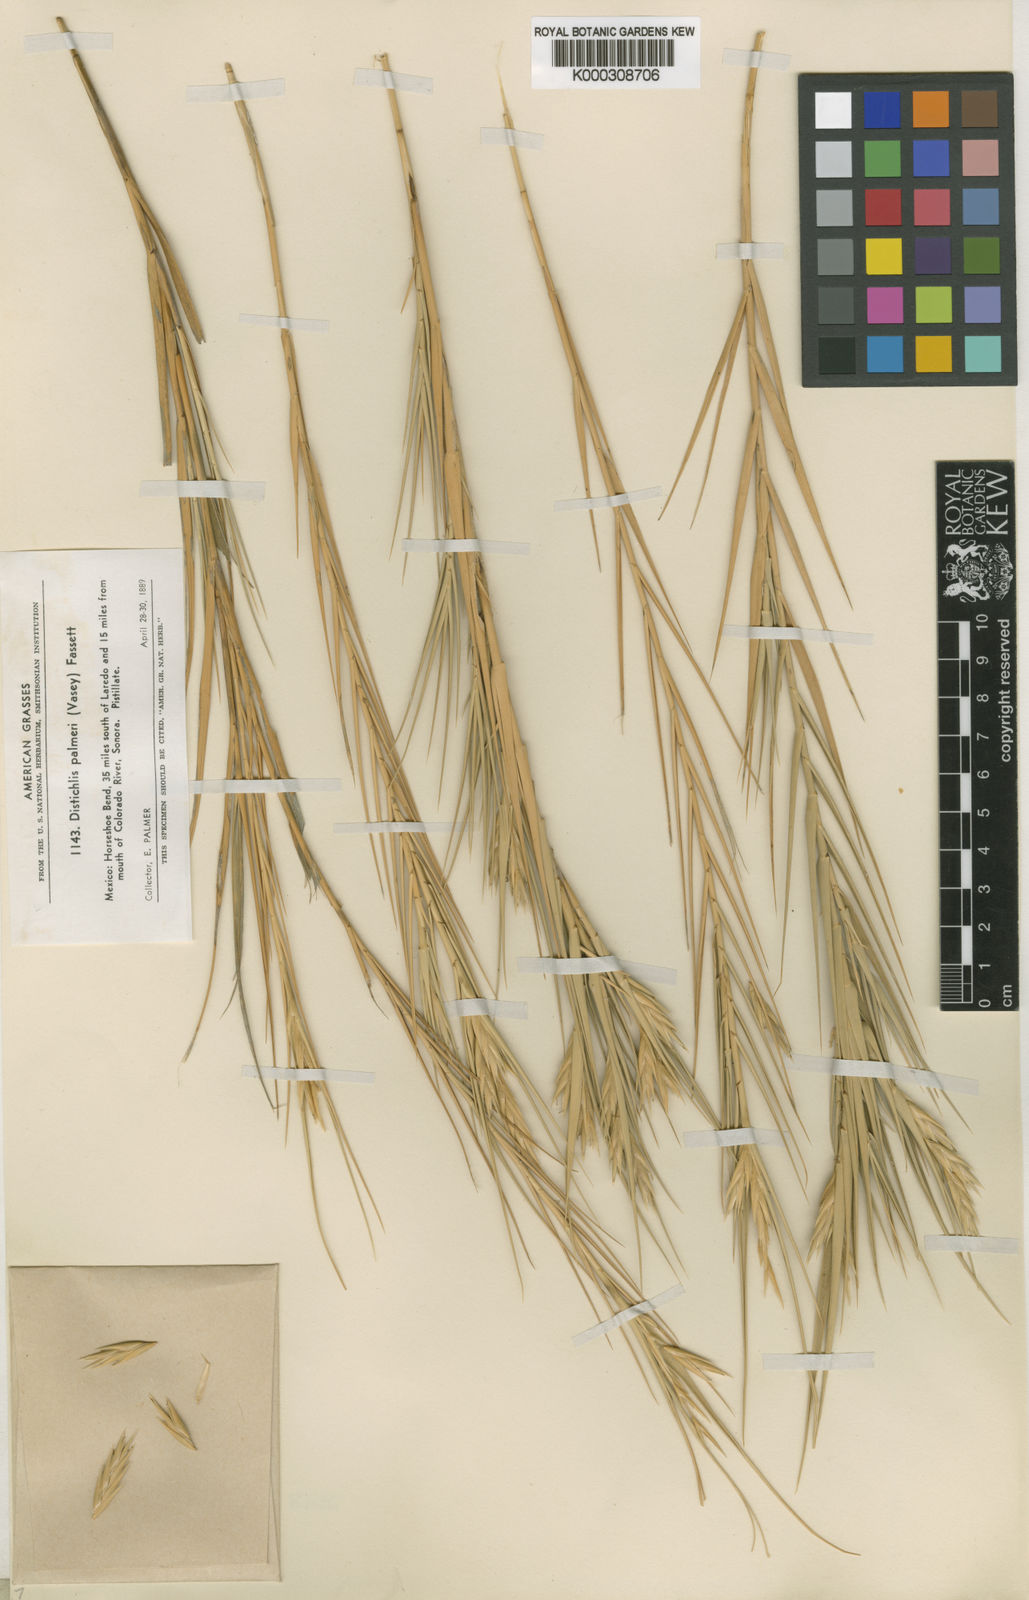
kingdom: Plantae
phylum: Tracheophyta
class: Liliopsida
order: Poales
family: Poaceae
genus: Distichlis
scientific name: Distichlis palmeri
